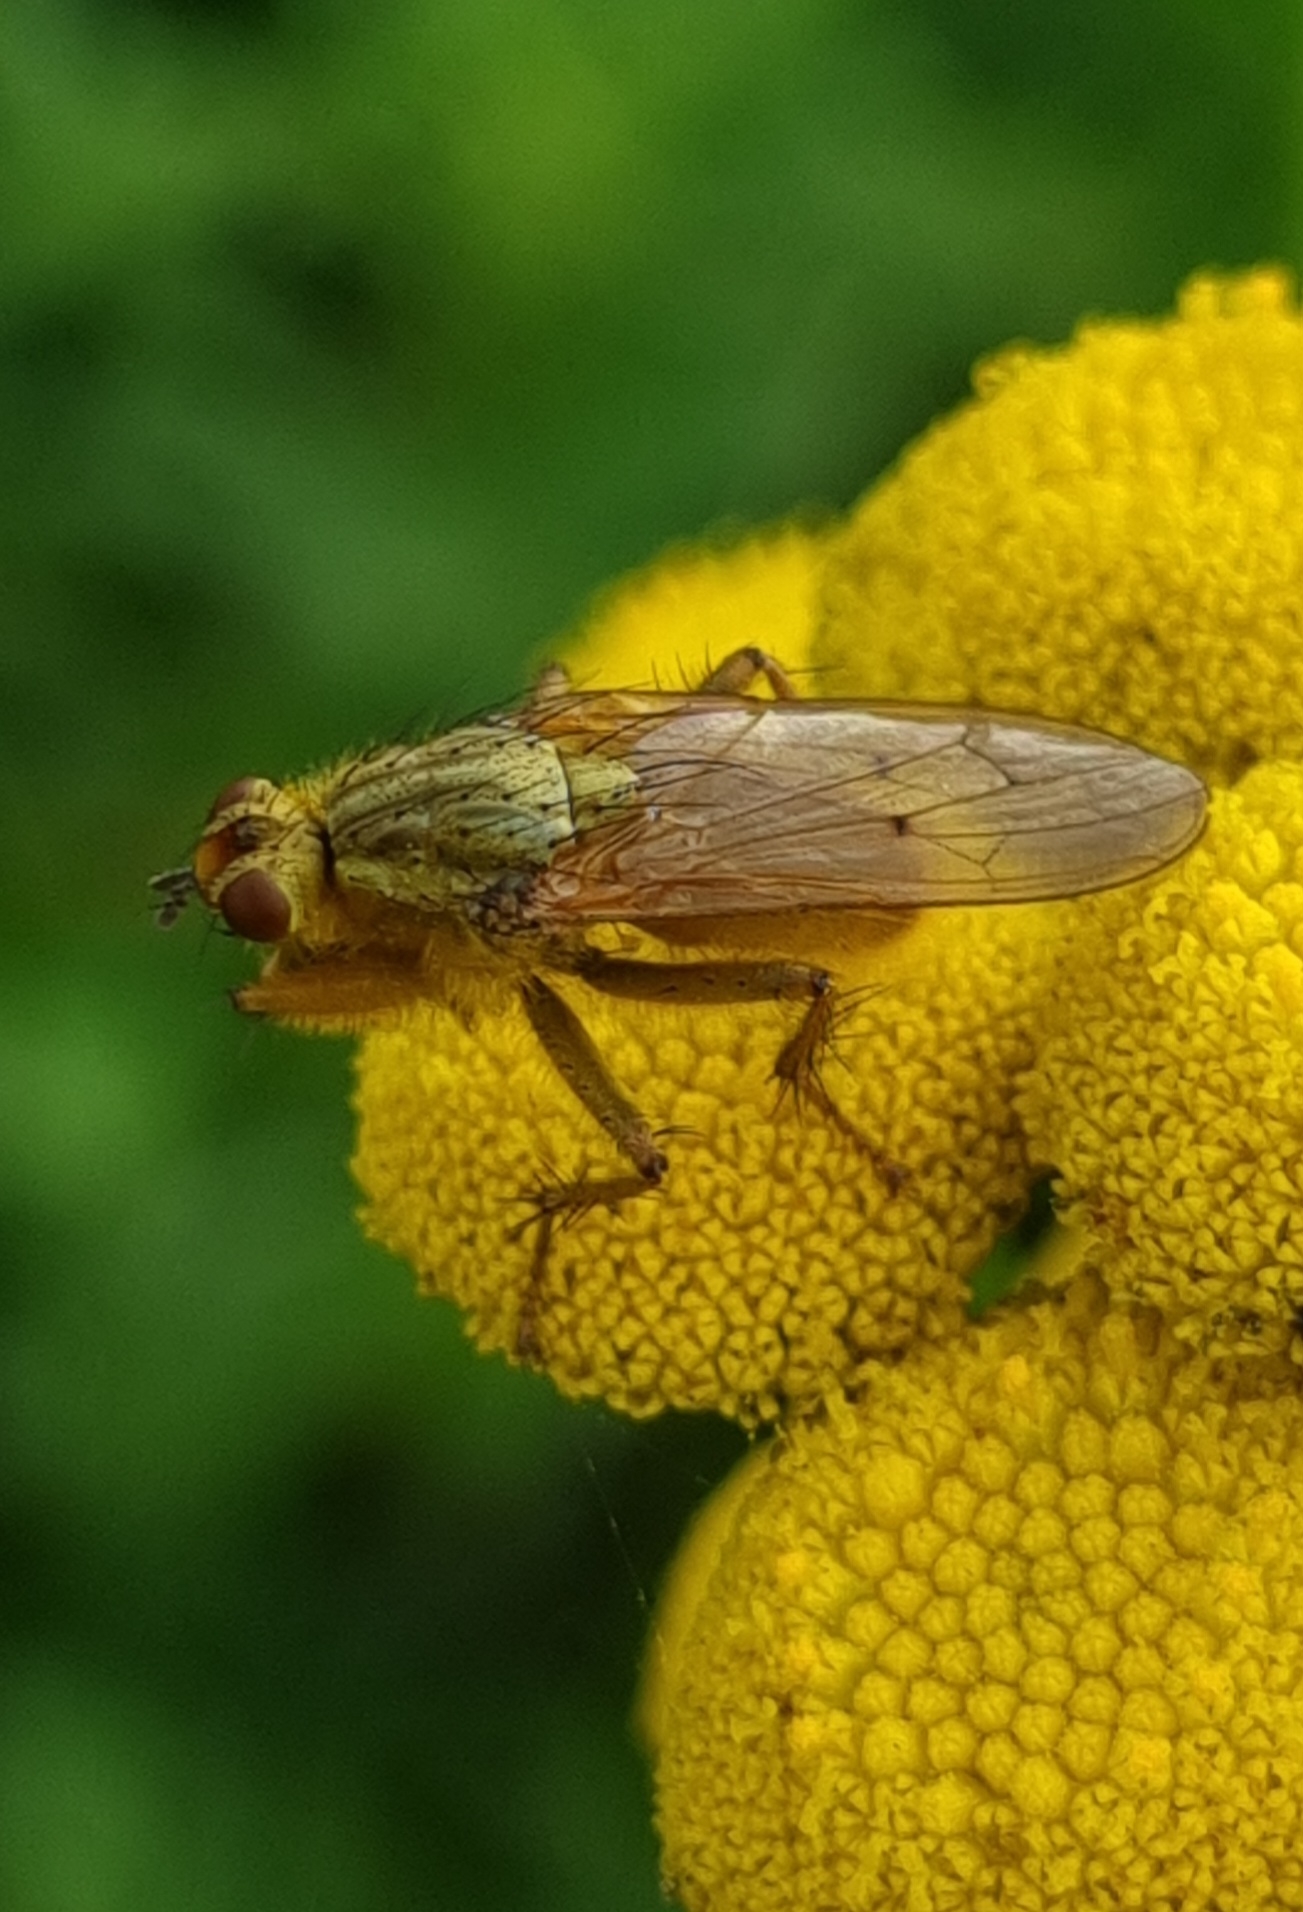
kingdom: Animalia
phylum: Arthropoda
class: Insecta
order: Diptera
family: Scathophagidae
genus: Scathophaga
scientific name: Scathophaga stercoraria
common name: Almindelig gødningsflue
